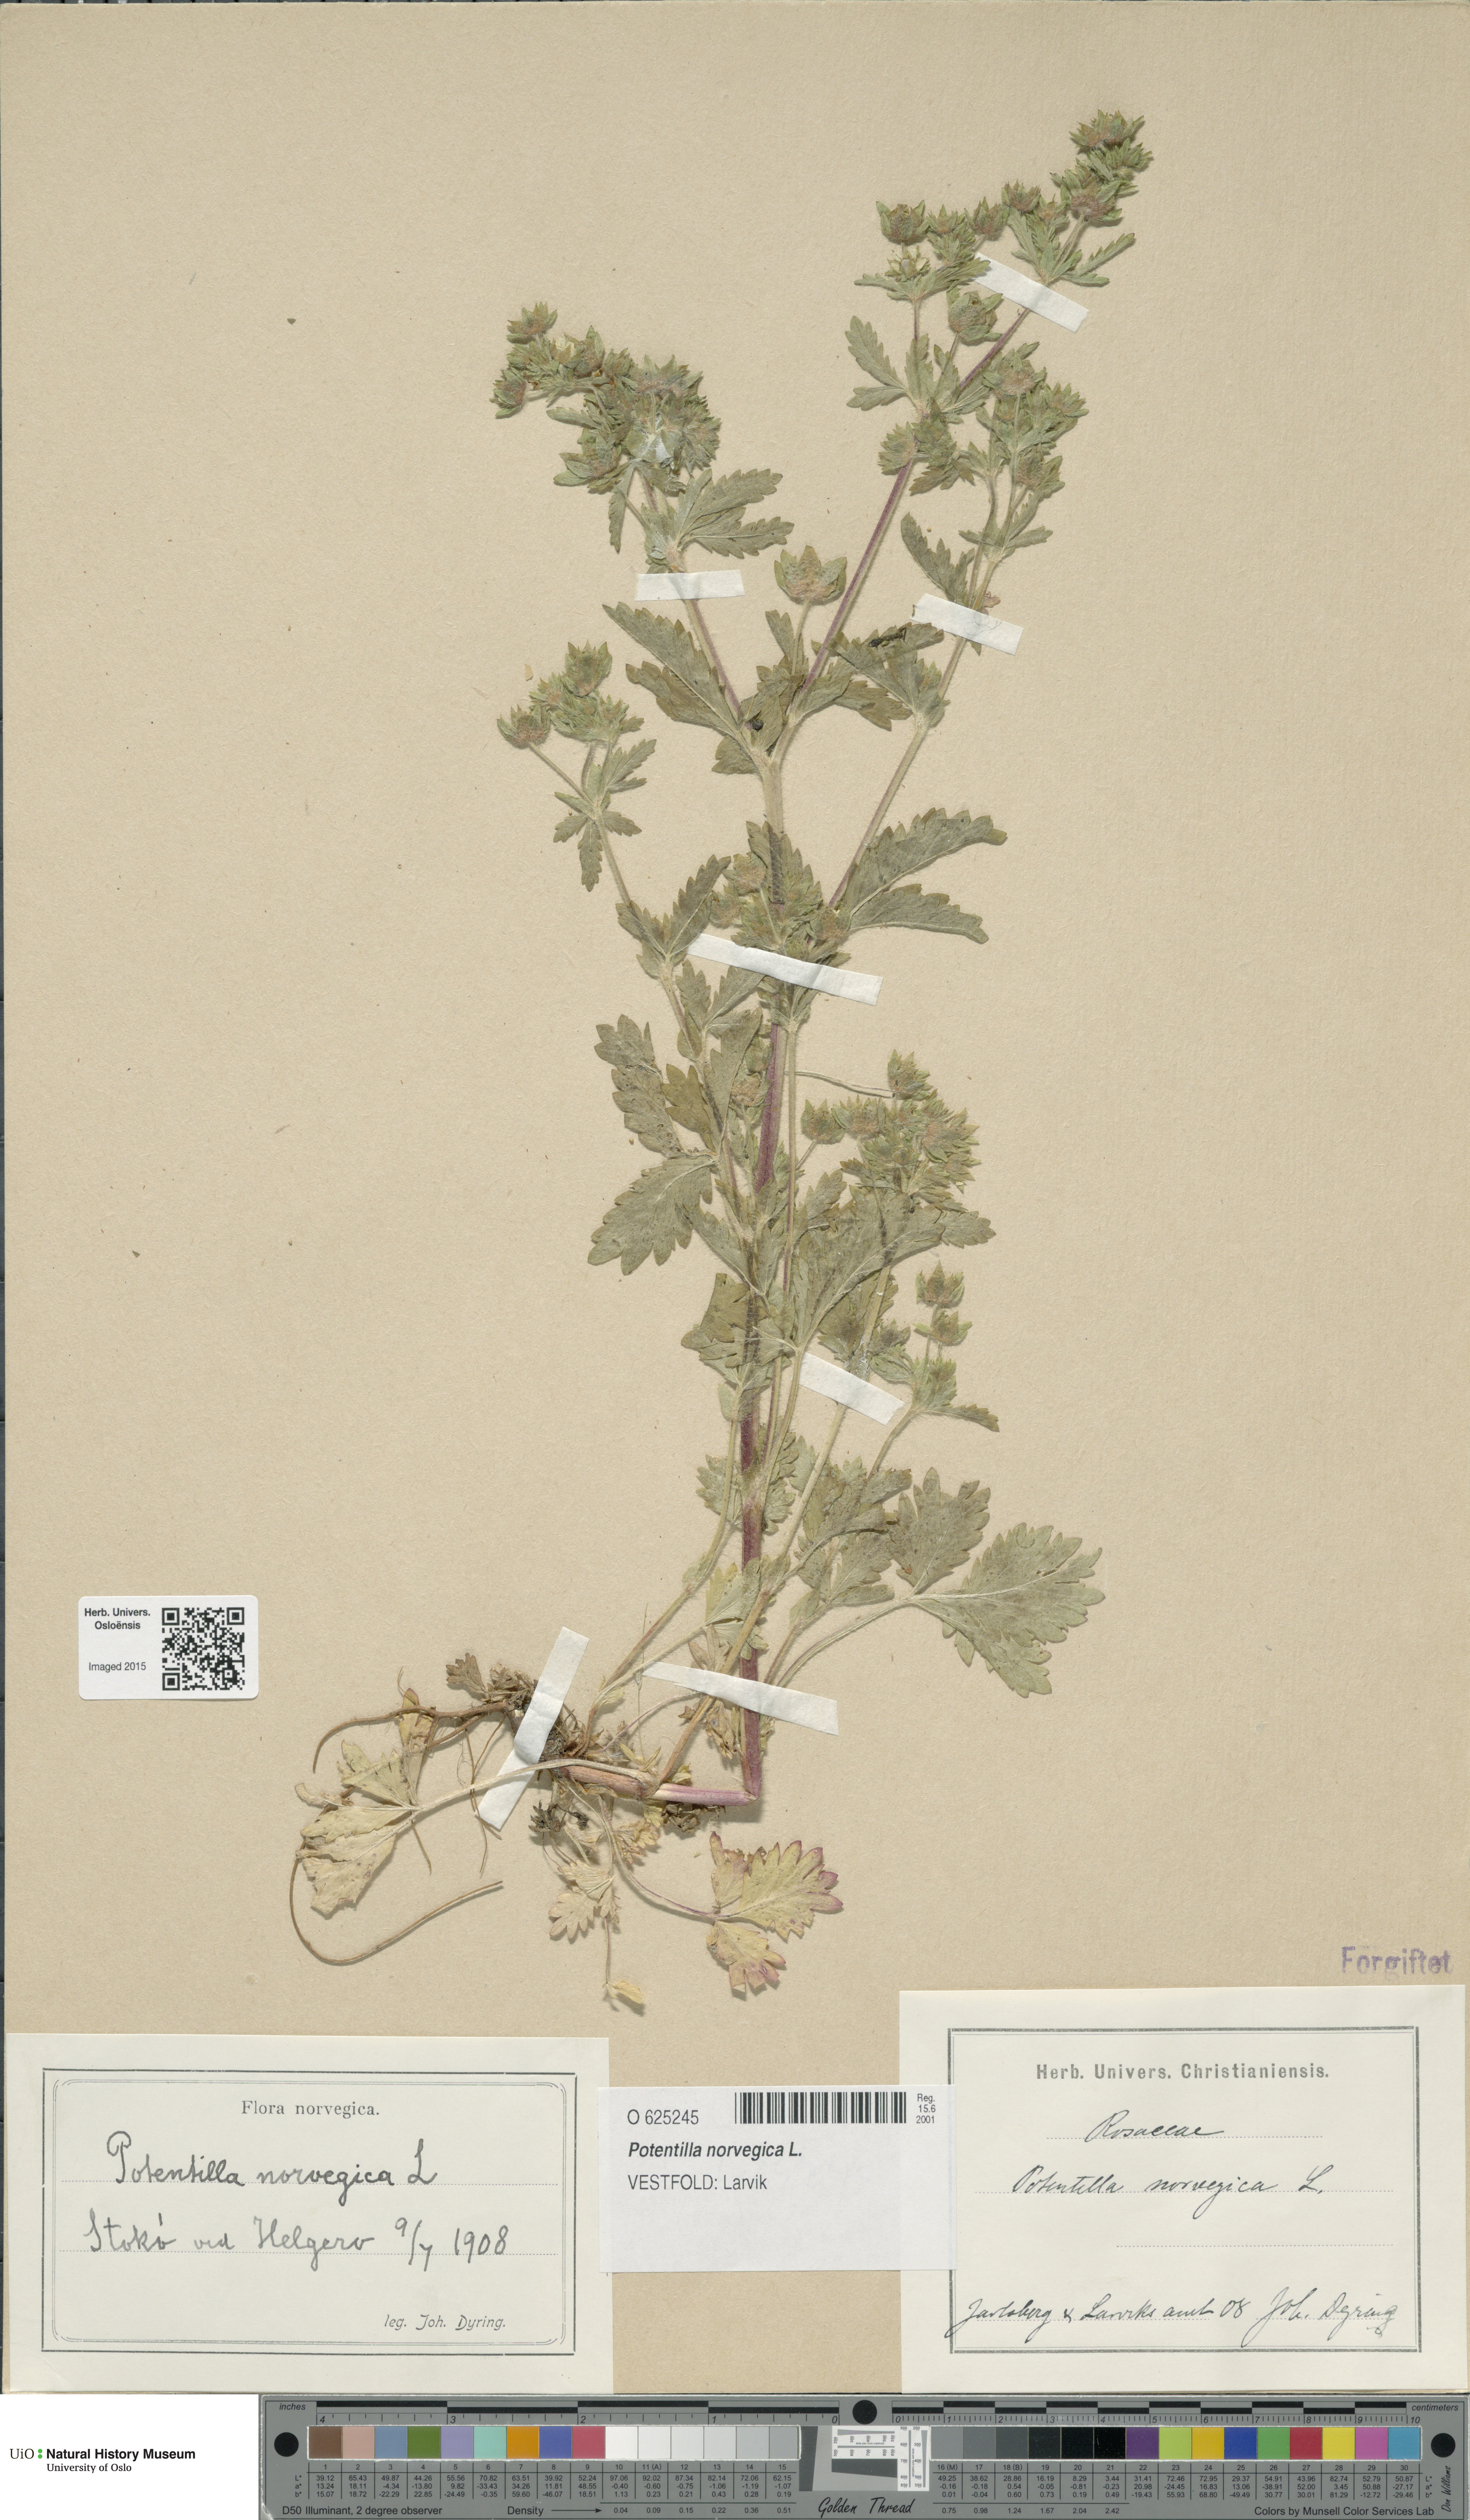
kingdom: Plantae
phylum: Tracheophyta
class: Magnoliopsida
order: Rosales
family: Rosaceae
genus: Potentilla
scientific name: Potentilla norvegica
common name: Ternate-leaved cinquefoil
